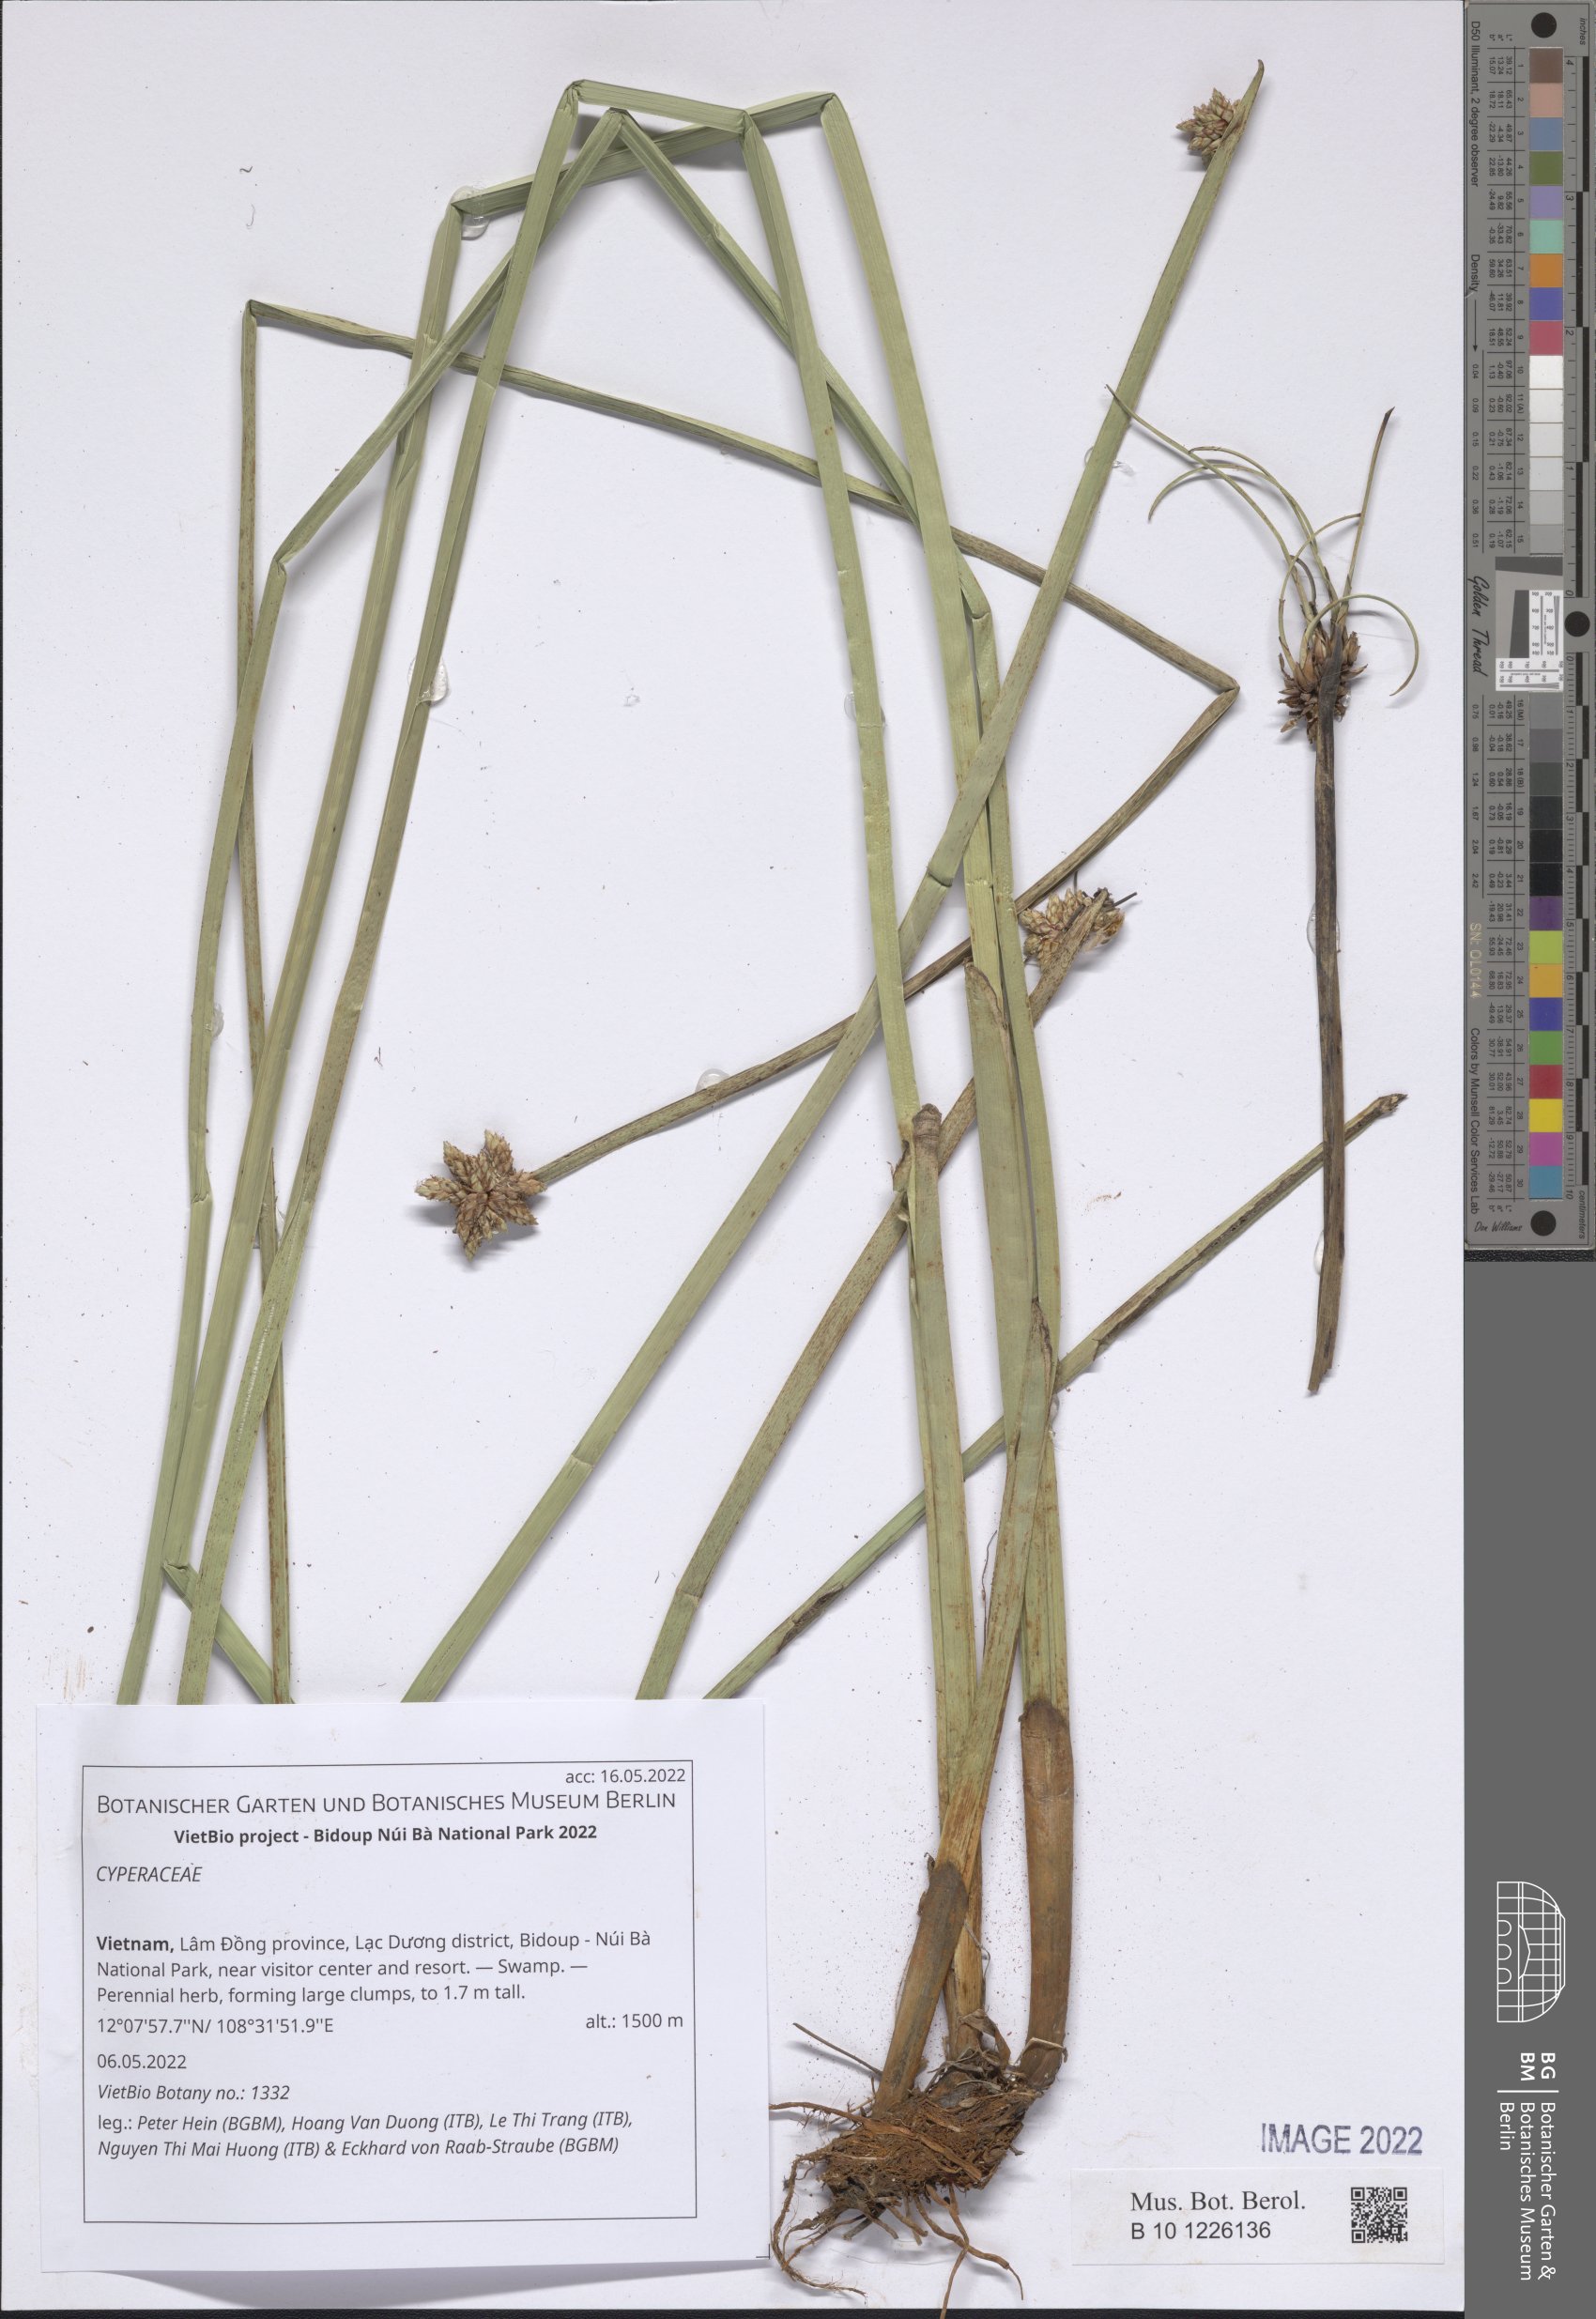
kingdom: Plantae
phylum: Tracheophyta
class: Liliopsida
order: Poales
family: Cyperaceae
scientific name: Cyperaceae
